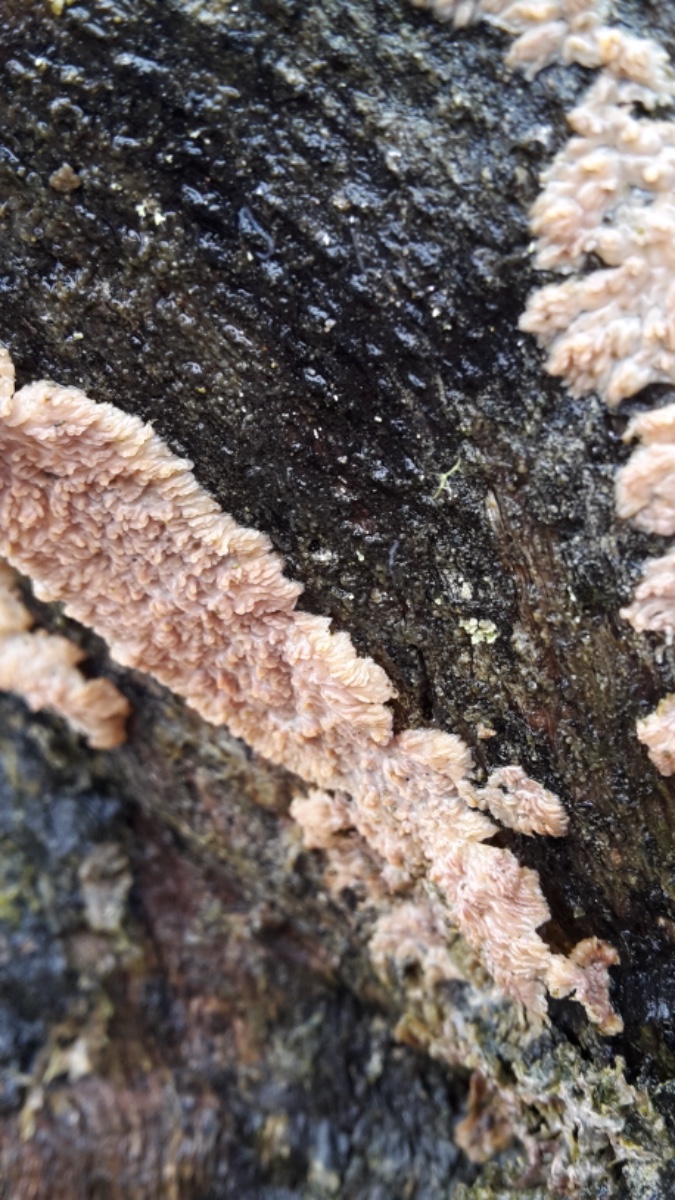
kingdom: Fungi
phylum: Basidiomycota
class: Agaricomycetes
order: Polyporales
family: Meruliaceae
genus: Phlebia
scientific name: Phlebia radiata
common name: stråle-åresvamp
